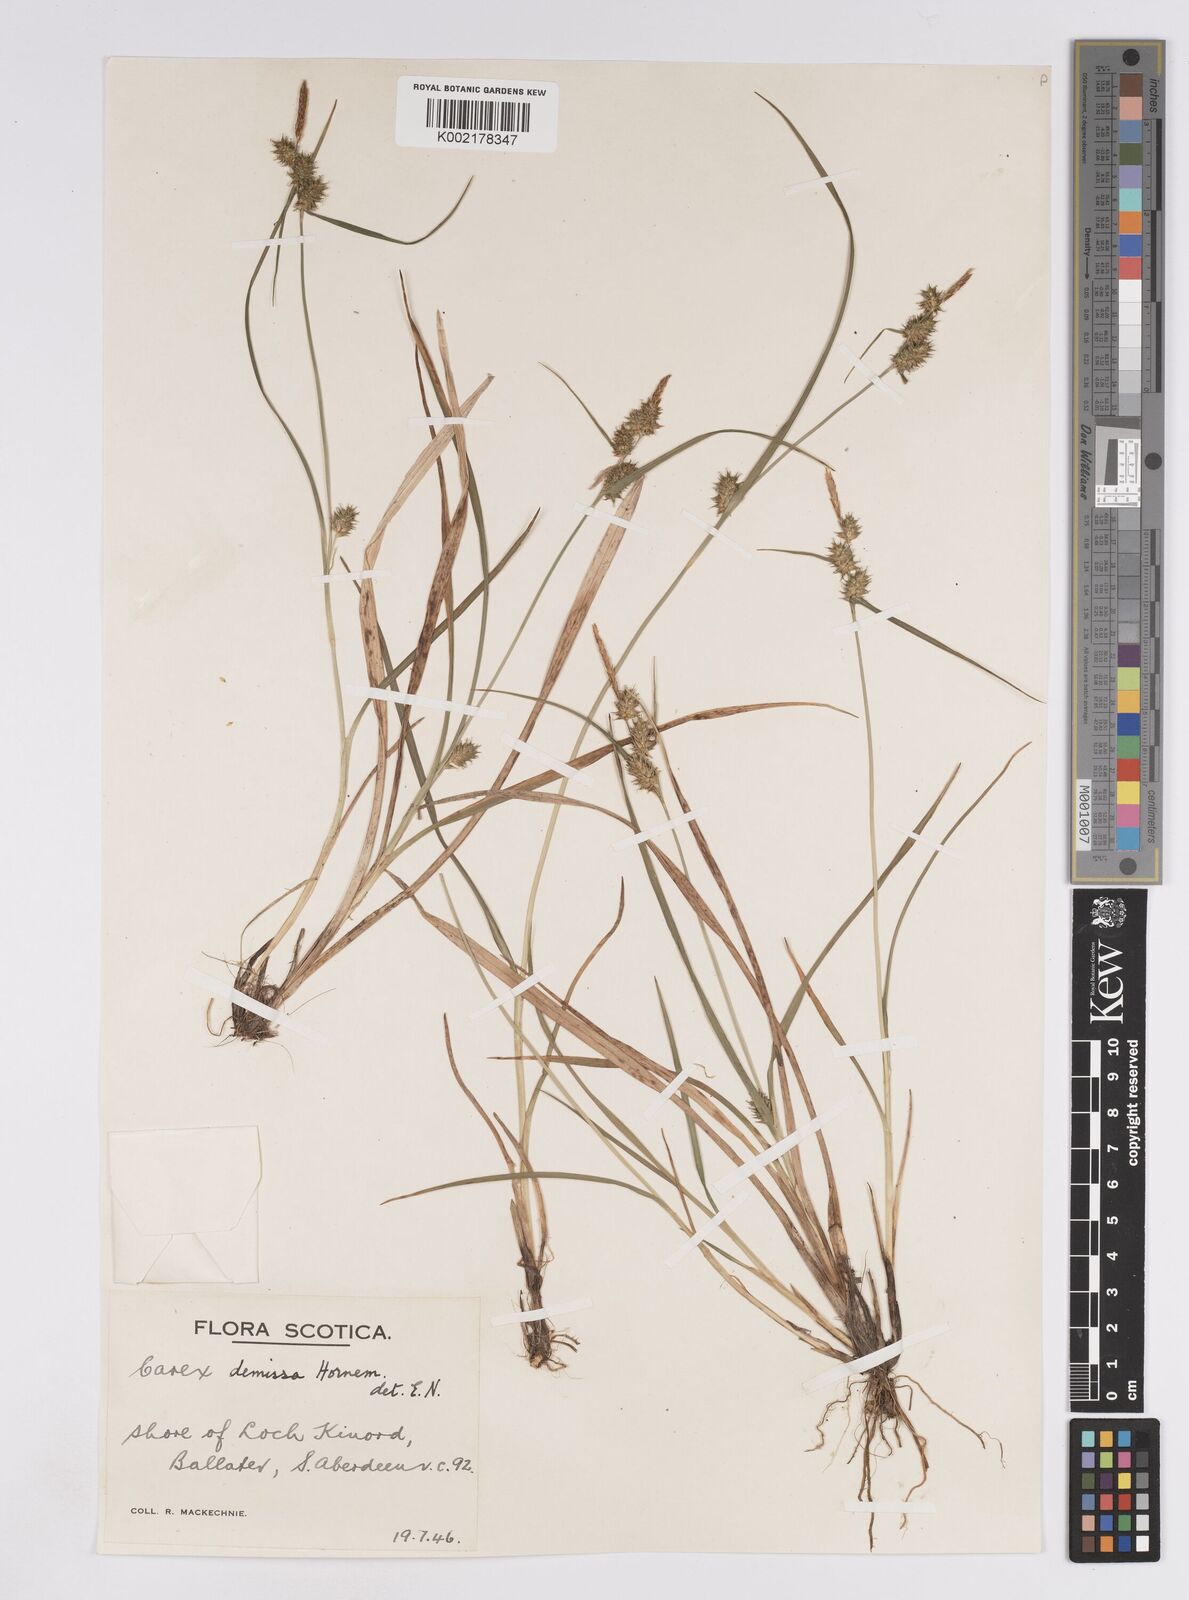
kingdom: Plantae
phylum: Tracheophyta
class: Liliopsida
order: Poales
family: Cyperaceae
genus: Carex
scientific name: Carex demissa
